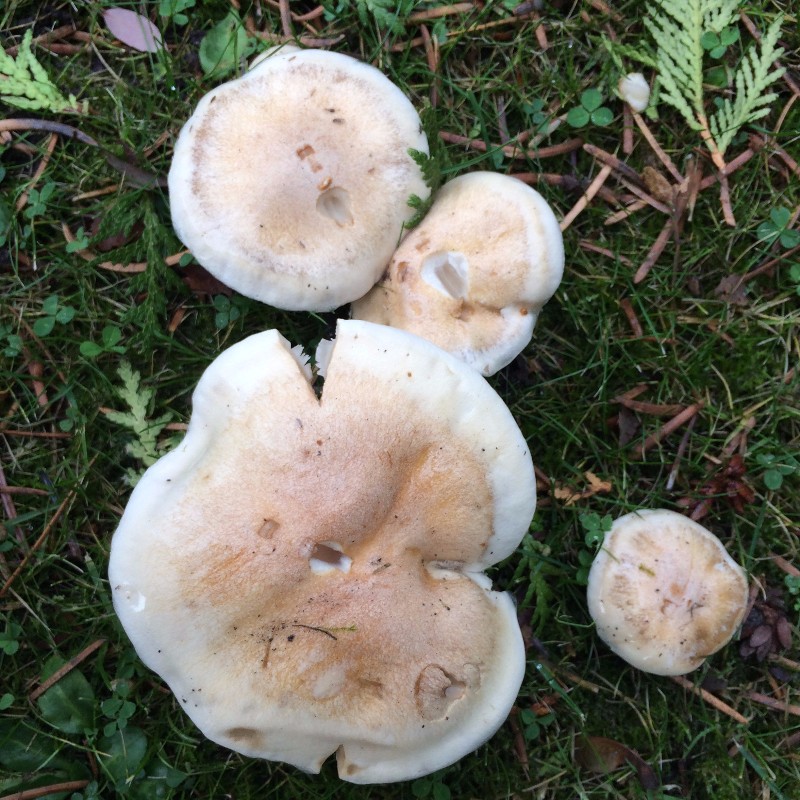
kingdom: Fungi
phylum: Basidiomycota
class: Agaricomycetes
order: Agaricales
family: Hymenogastraceae
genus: Hebeloma
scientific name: Hebeloma
